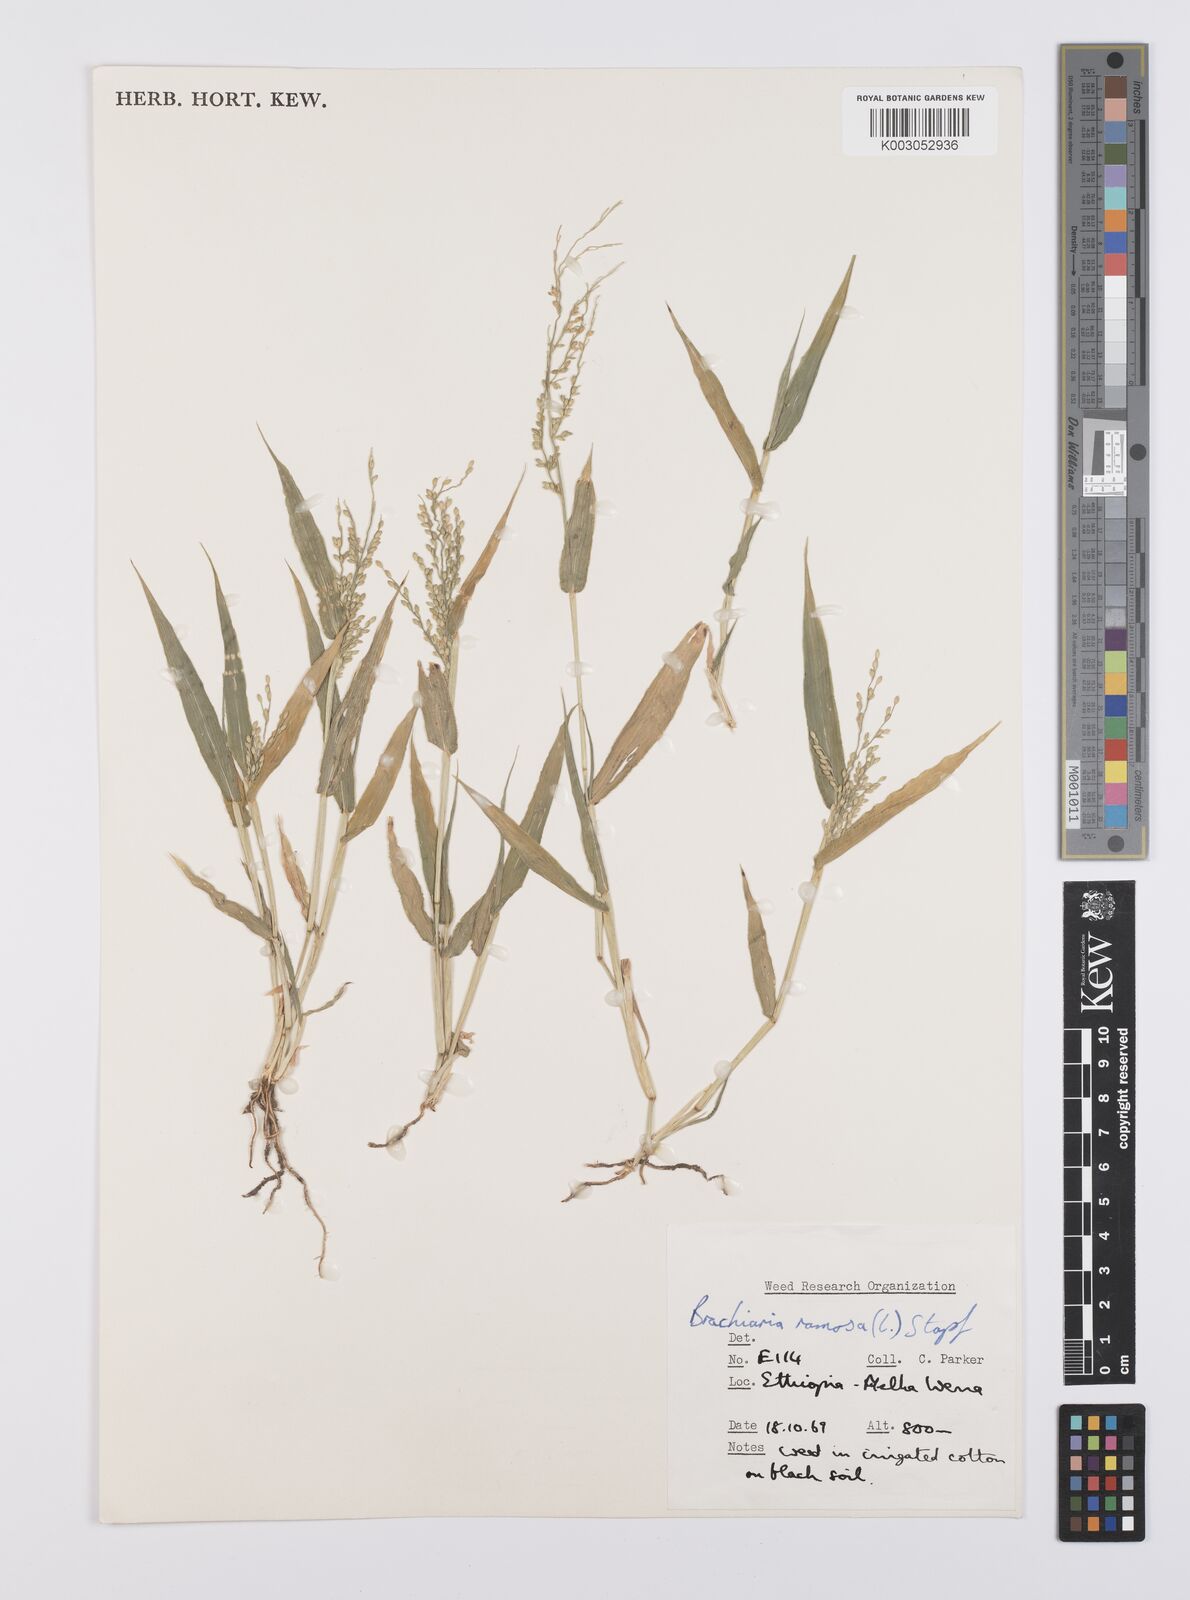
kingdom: Plantae
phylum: Tracheophyta
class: Liliopsida
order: Poales
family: Poaceae
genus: Urochloa
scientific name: Urochloa ramosa
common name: Browntop millet
